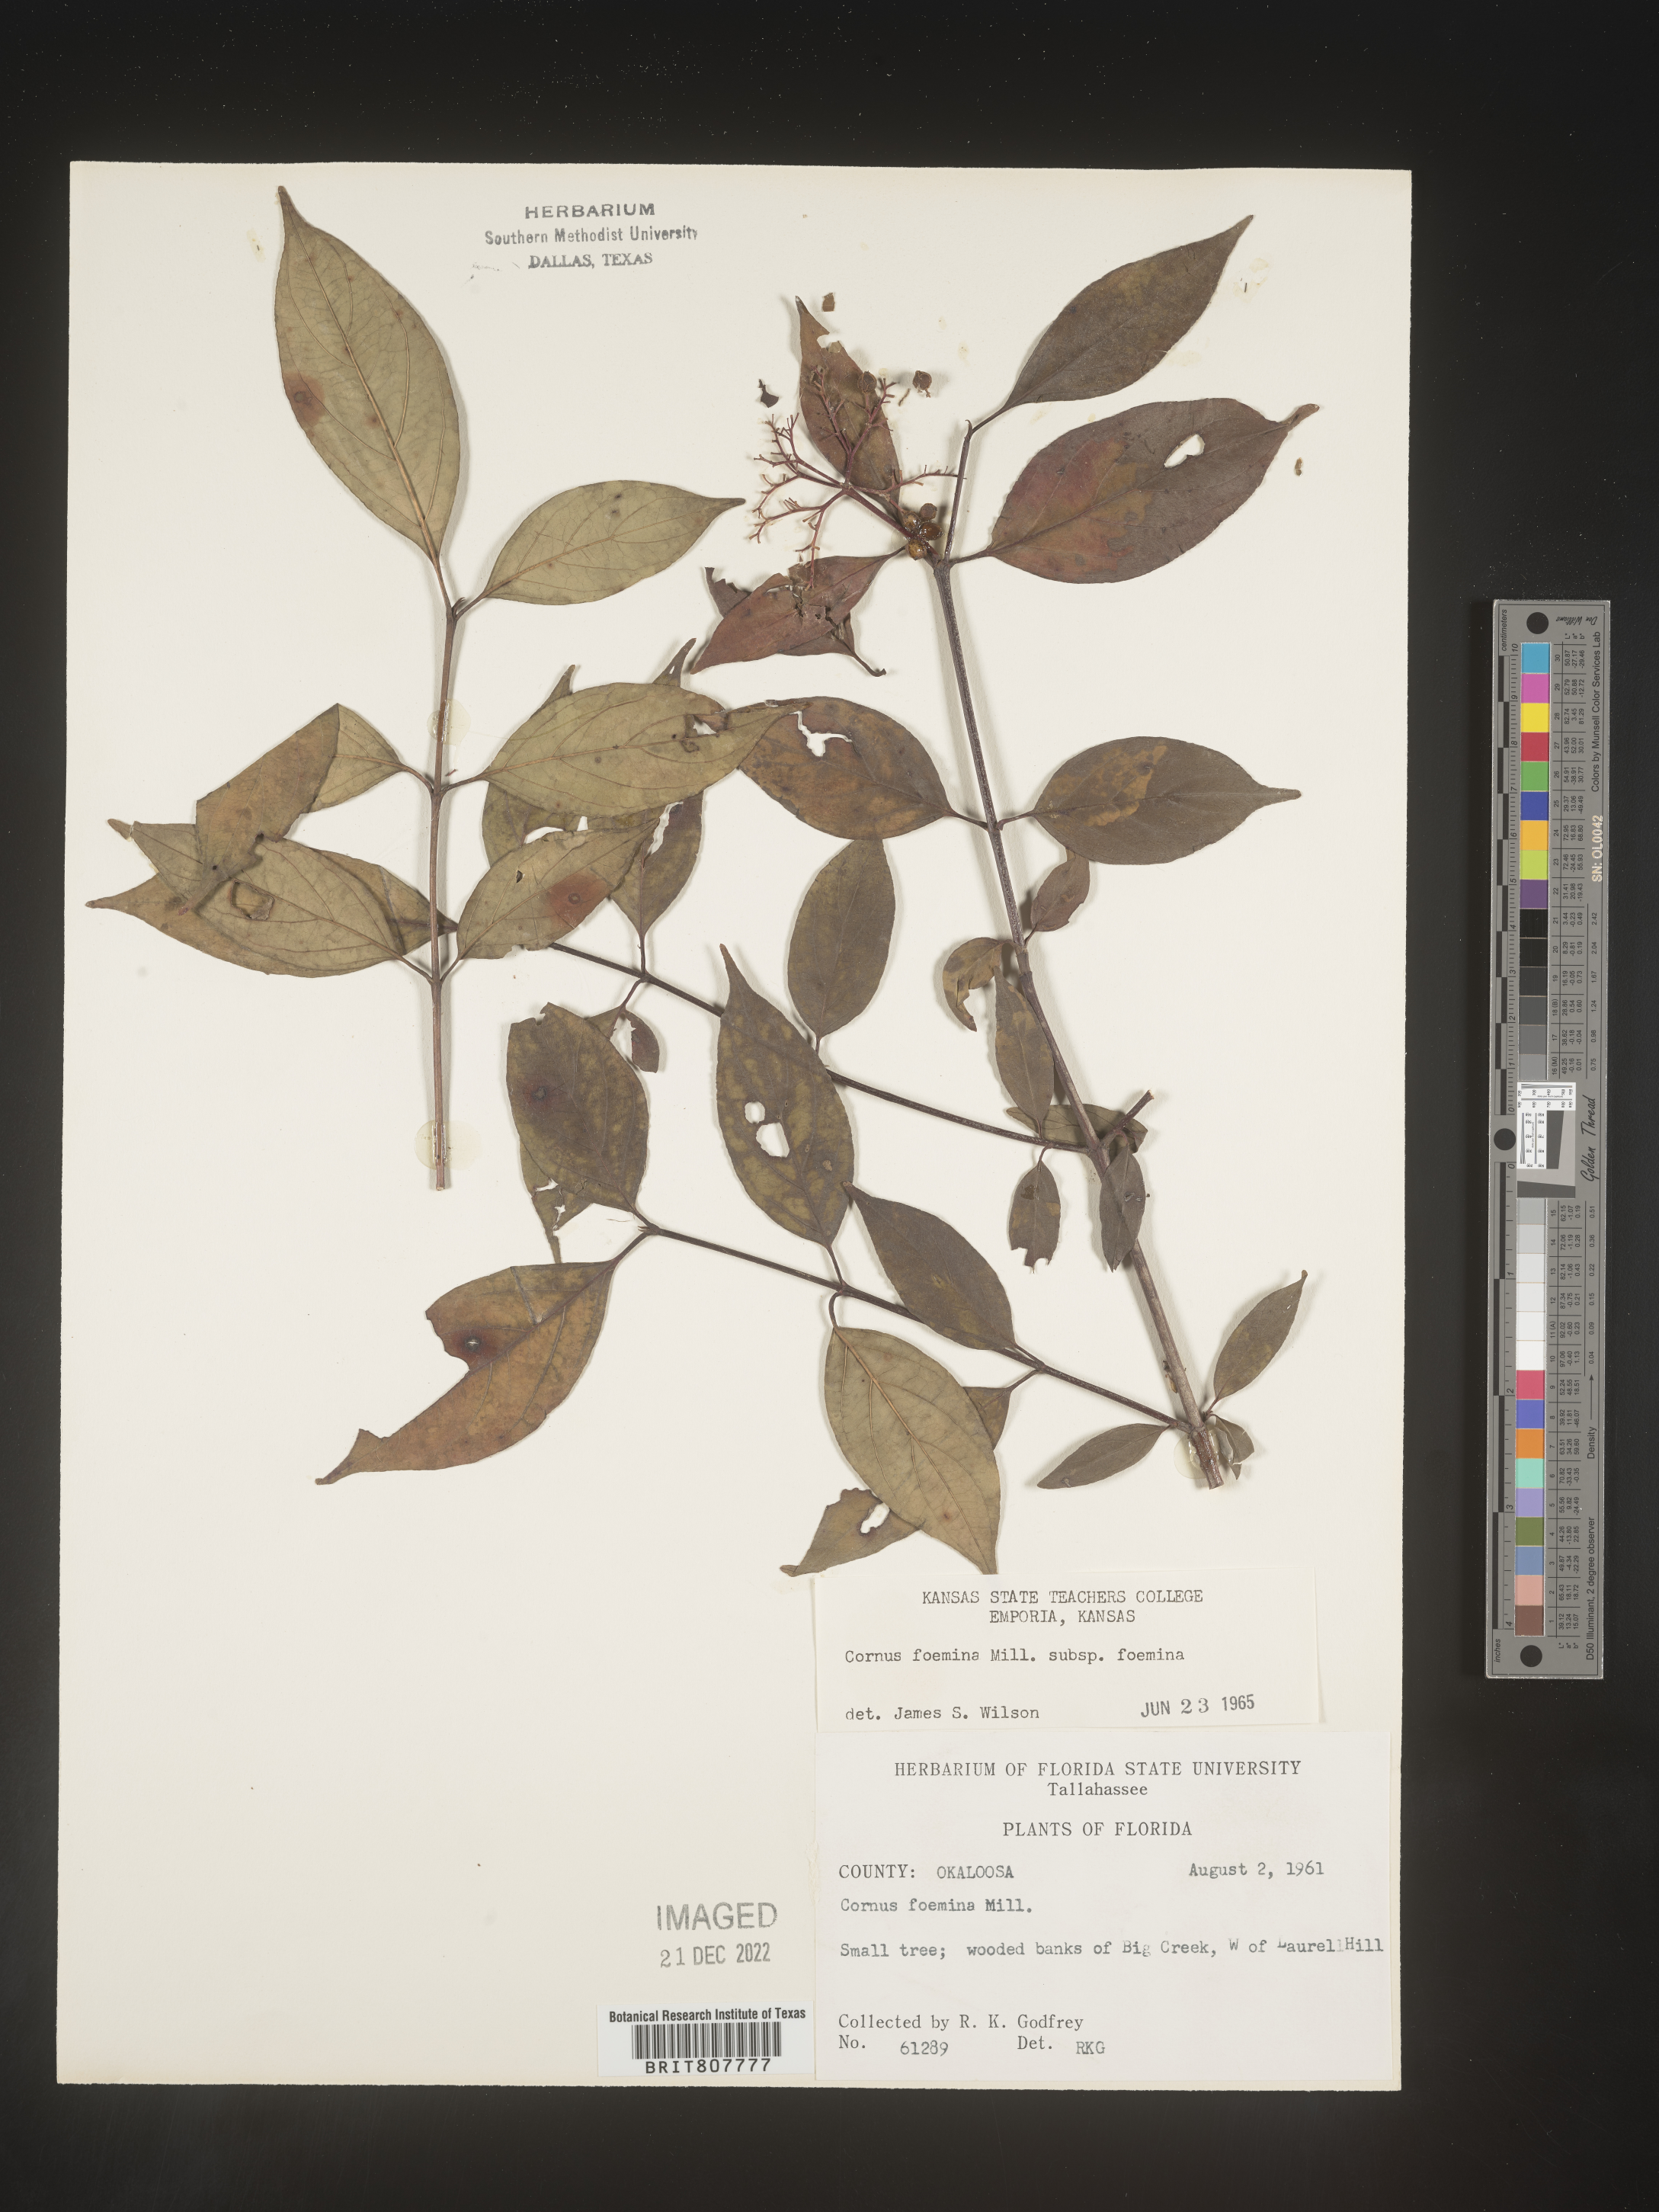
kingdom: Plantae
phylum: Tracheophyta
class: Magnoliopsida
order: Cornales
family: Cornaceae
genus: Cornus
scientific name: Cornus foemina
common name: Swamp dogwood
